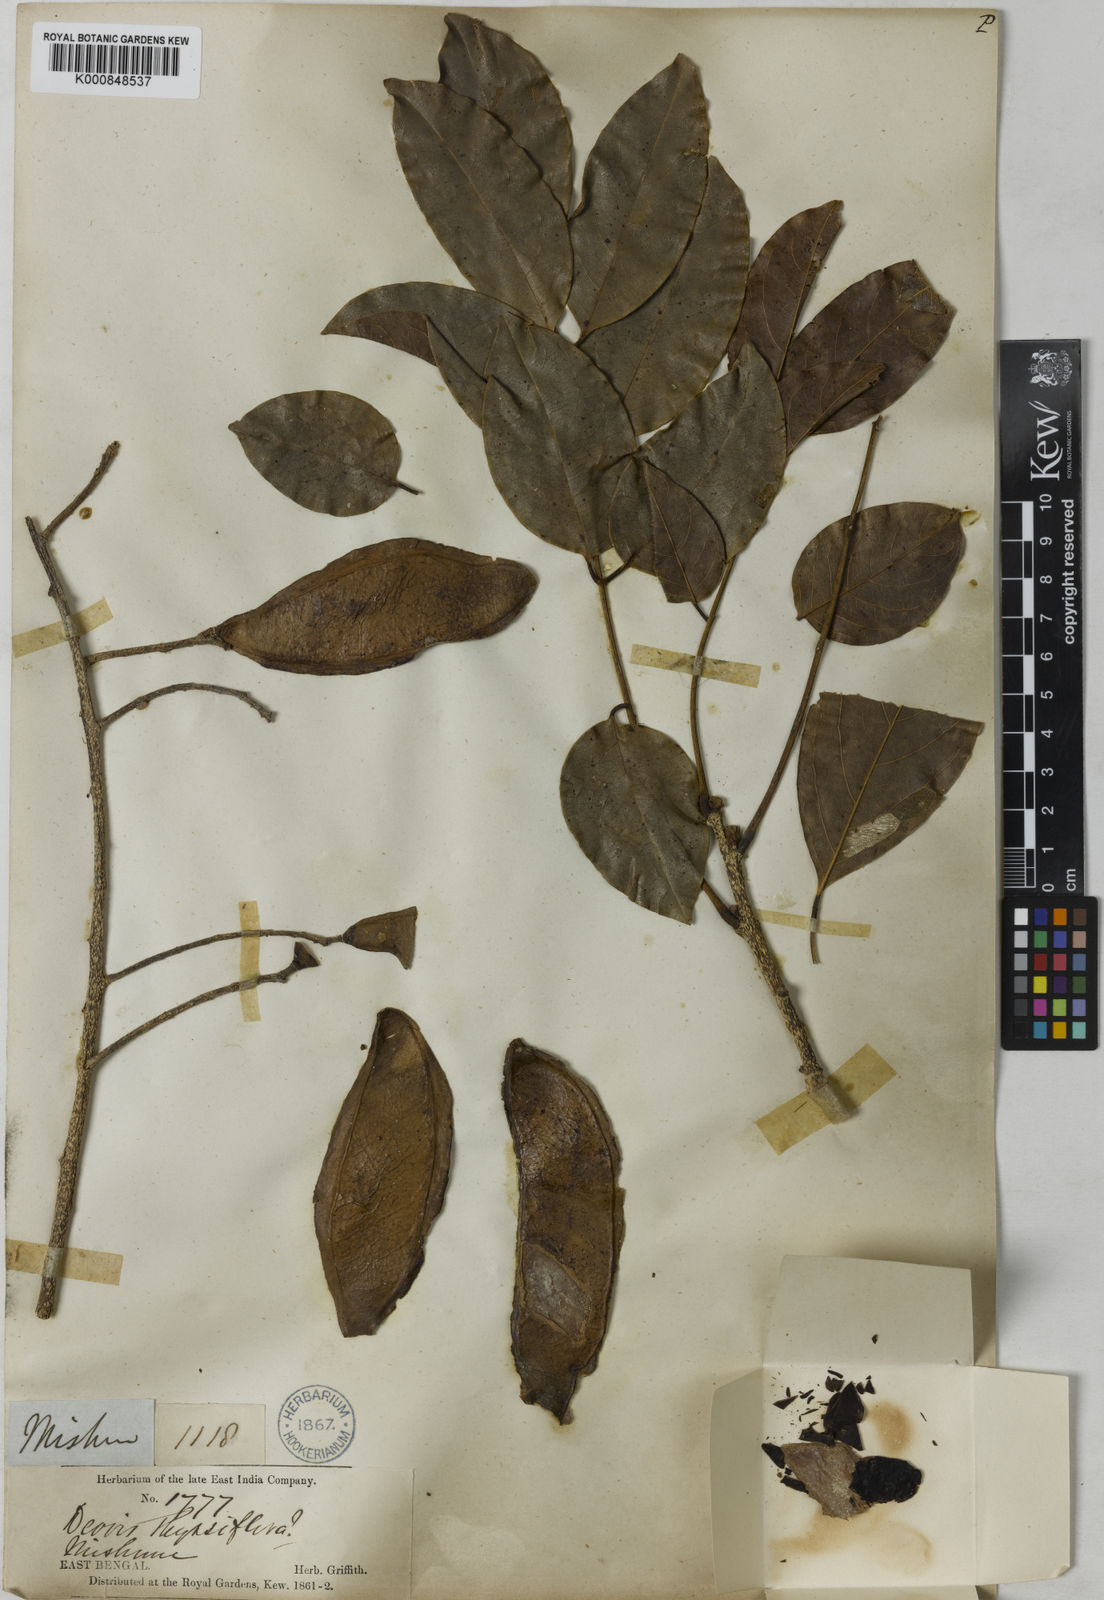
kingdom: Plantae
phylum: Tracheophyta
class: Magnoliopsida
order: Fabales
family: Fabaceae
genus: Aganope
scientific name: Aganope thyrsiflora
